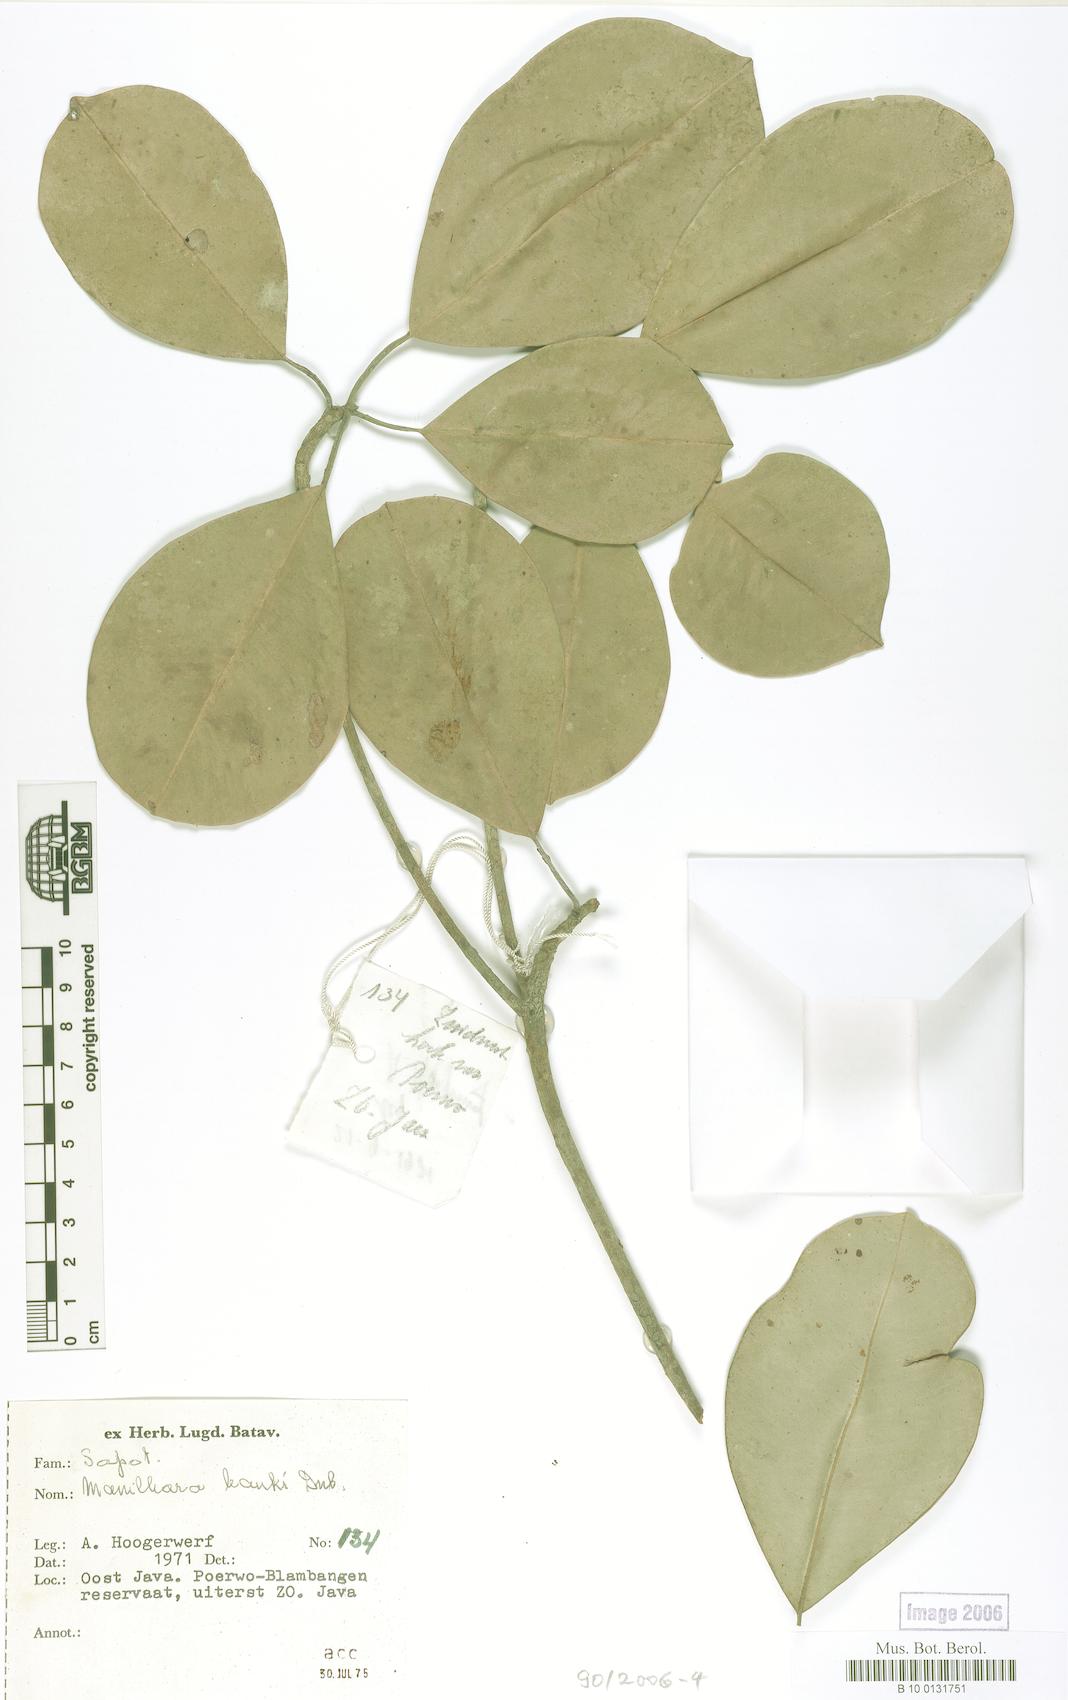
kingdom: Plantae
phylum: Tracheophyta
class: Magnoliopsida
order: Ericales
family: Sapotaceae
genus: Manilkara
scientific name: Manilkara kauki
